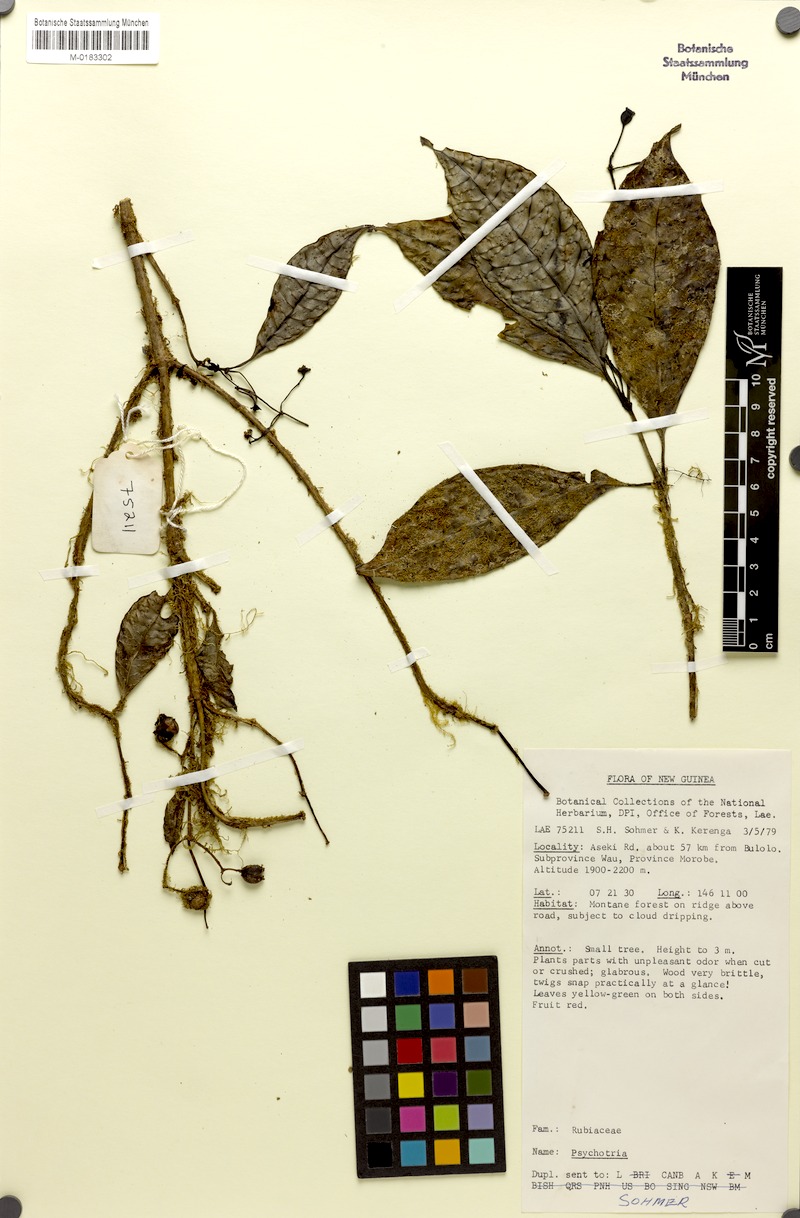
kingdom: Plantae
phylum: Tracheophyta
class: Magnoliopsida
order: Gentianales
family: Rubiaceae
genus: Eumachia
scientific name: Eumachia leptothyrsa
